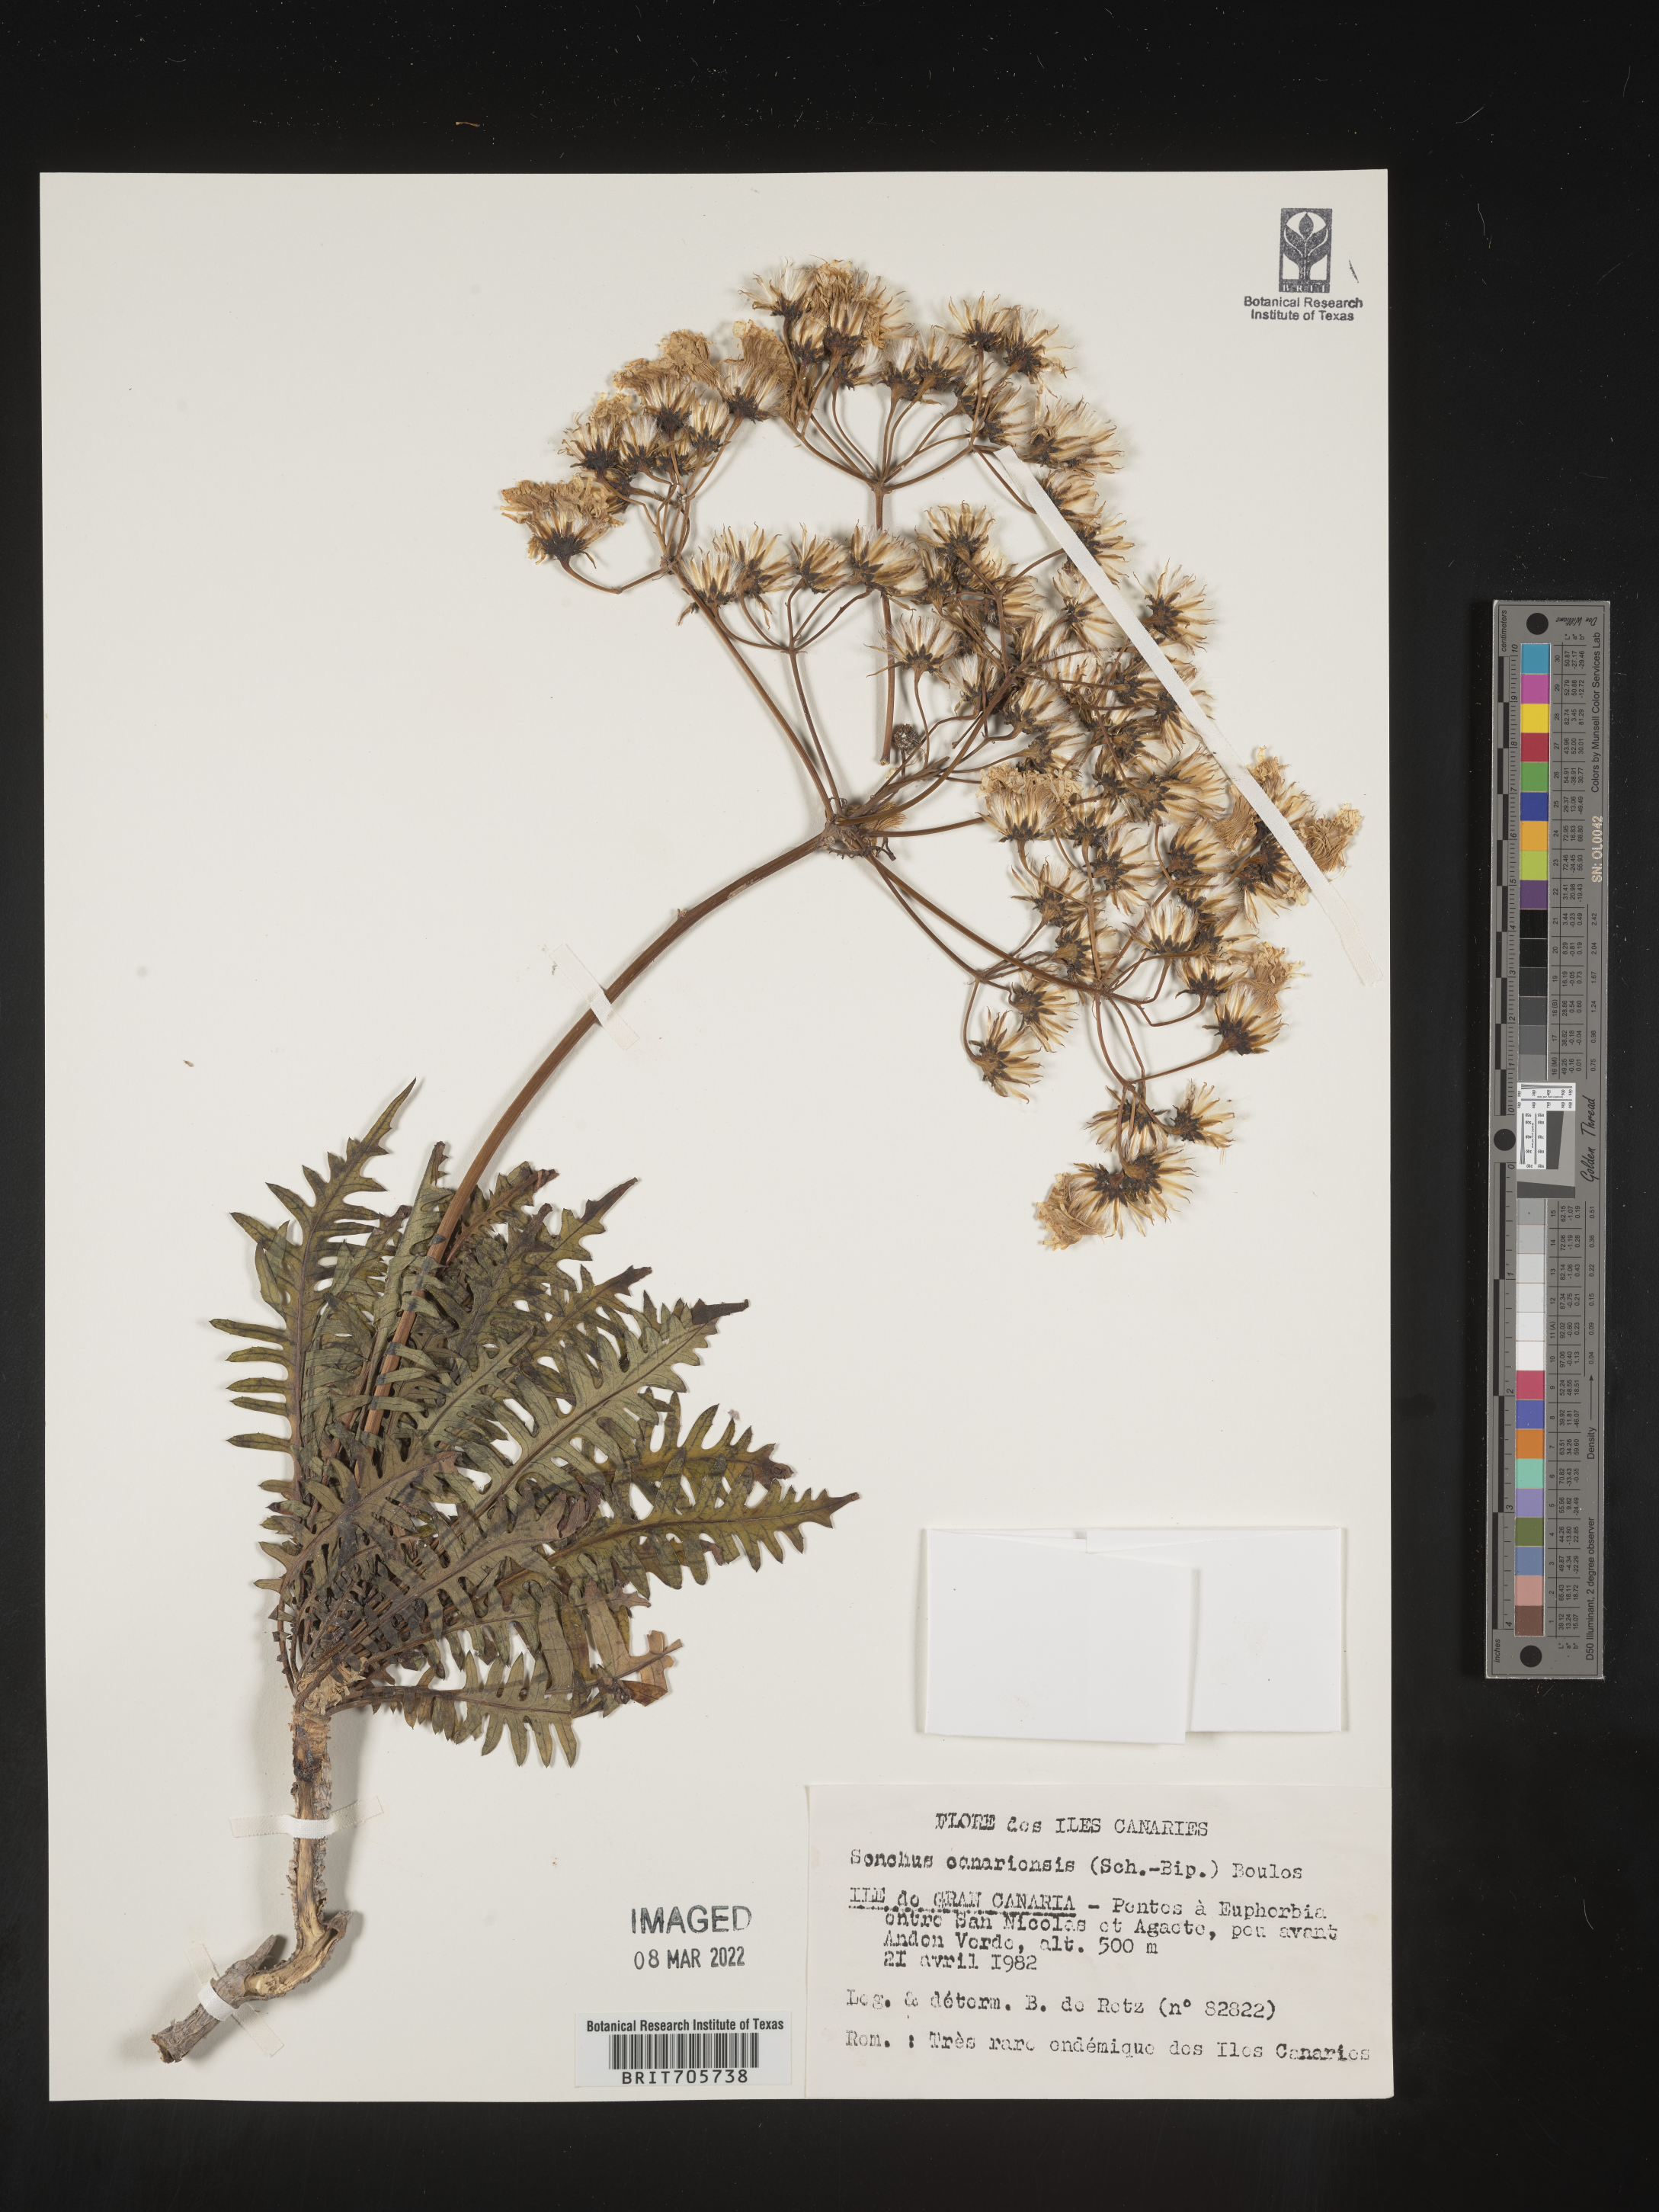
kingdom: Plantae
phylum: Tracheophyta
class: Magnoliopsida
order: Asterales
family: Asteraceae
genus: Sonchus
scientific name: Sonchus
